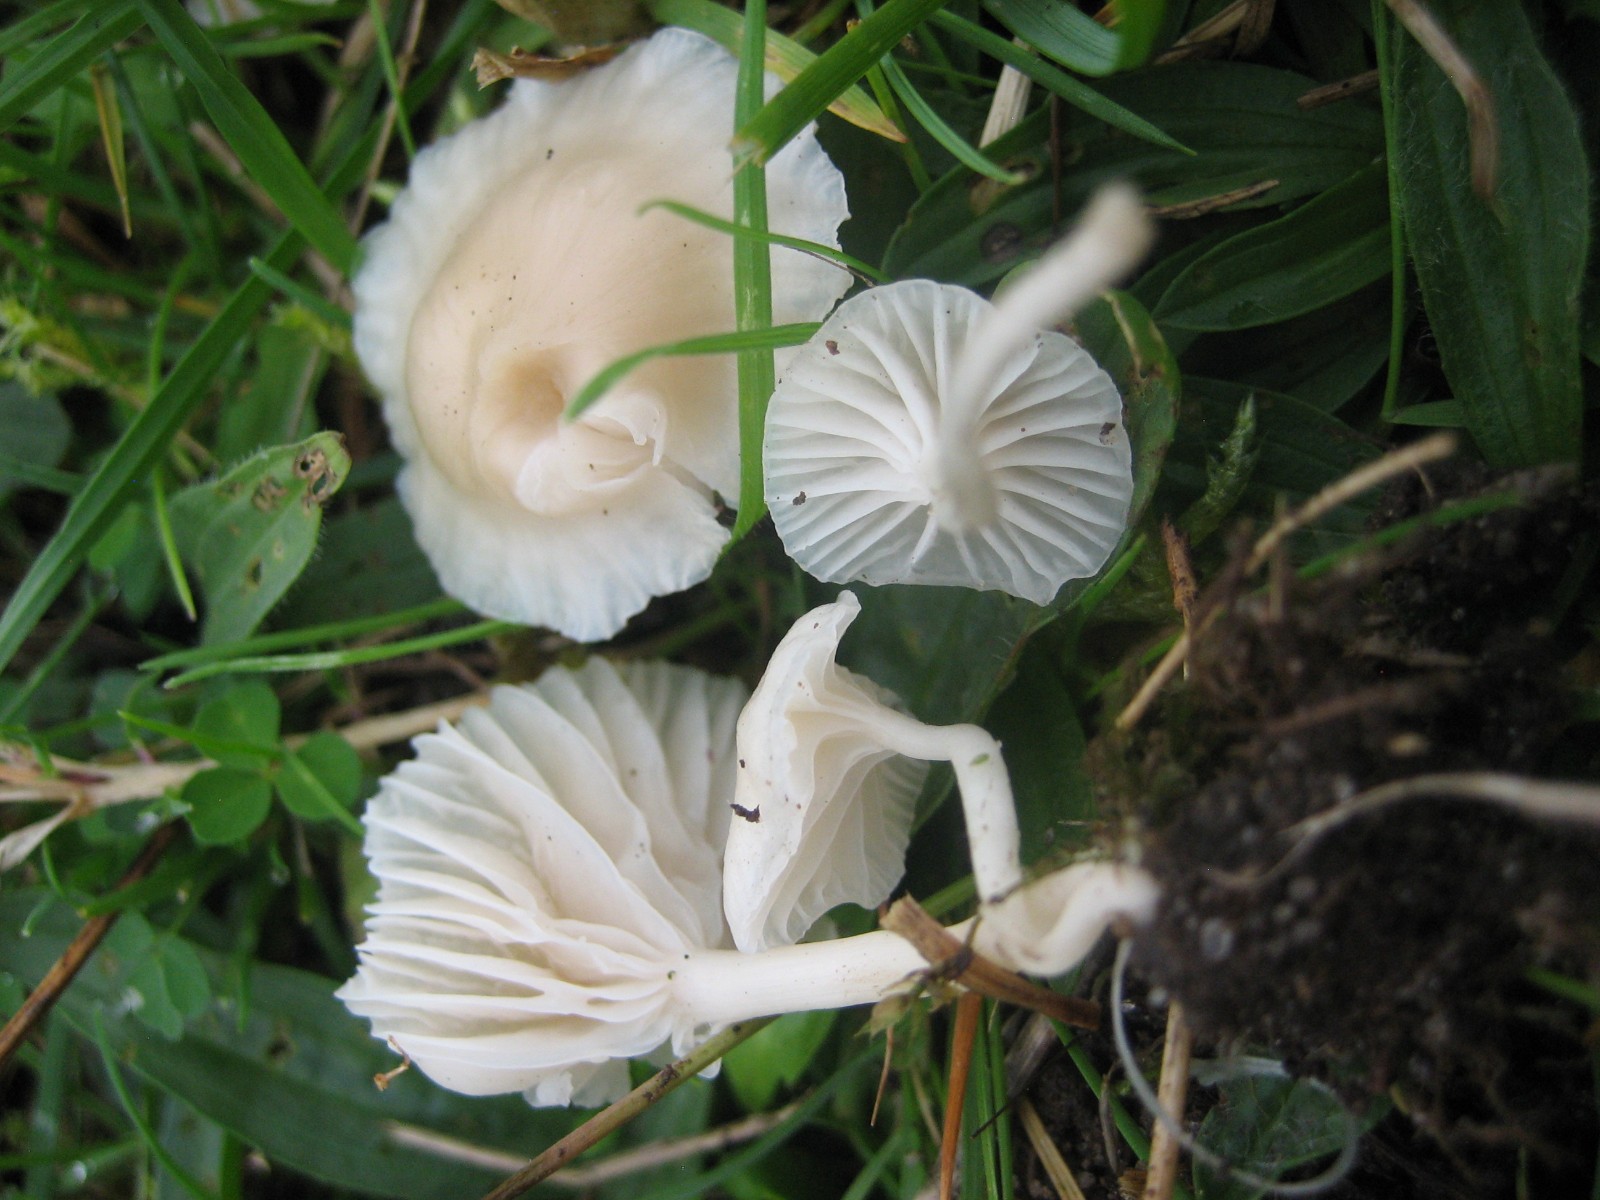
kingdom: Fungi
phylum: Basidiomycota
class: Agaricomycetes
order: Agaricales
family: Hygrophoraceae
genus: Cuphophyllus
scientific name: Cuphophyllus russocoriaceus
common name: ruslæder-vokshat
